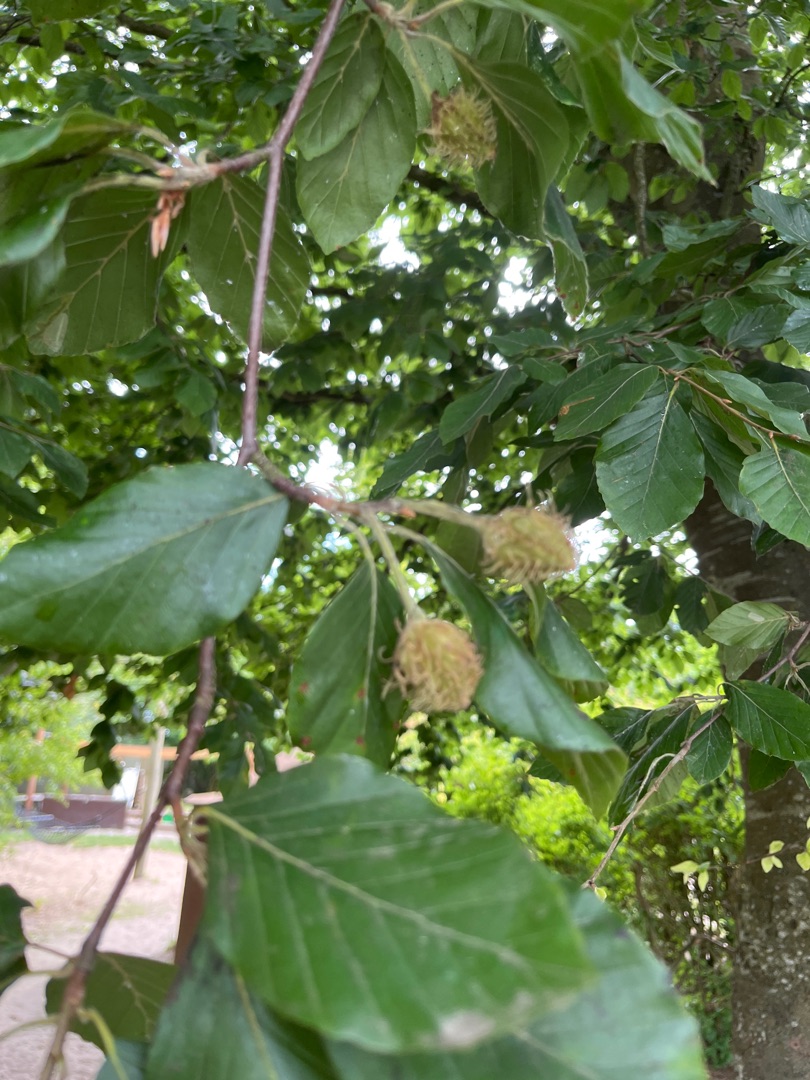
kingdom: Plantae
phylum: Tracheophyta
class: Magnoliopsida
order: Fagales
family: Fagaceae
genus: Fagus
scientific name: Fagus sylvatica
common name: Bøg
